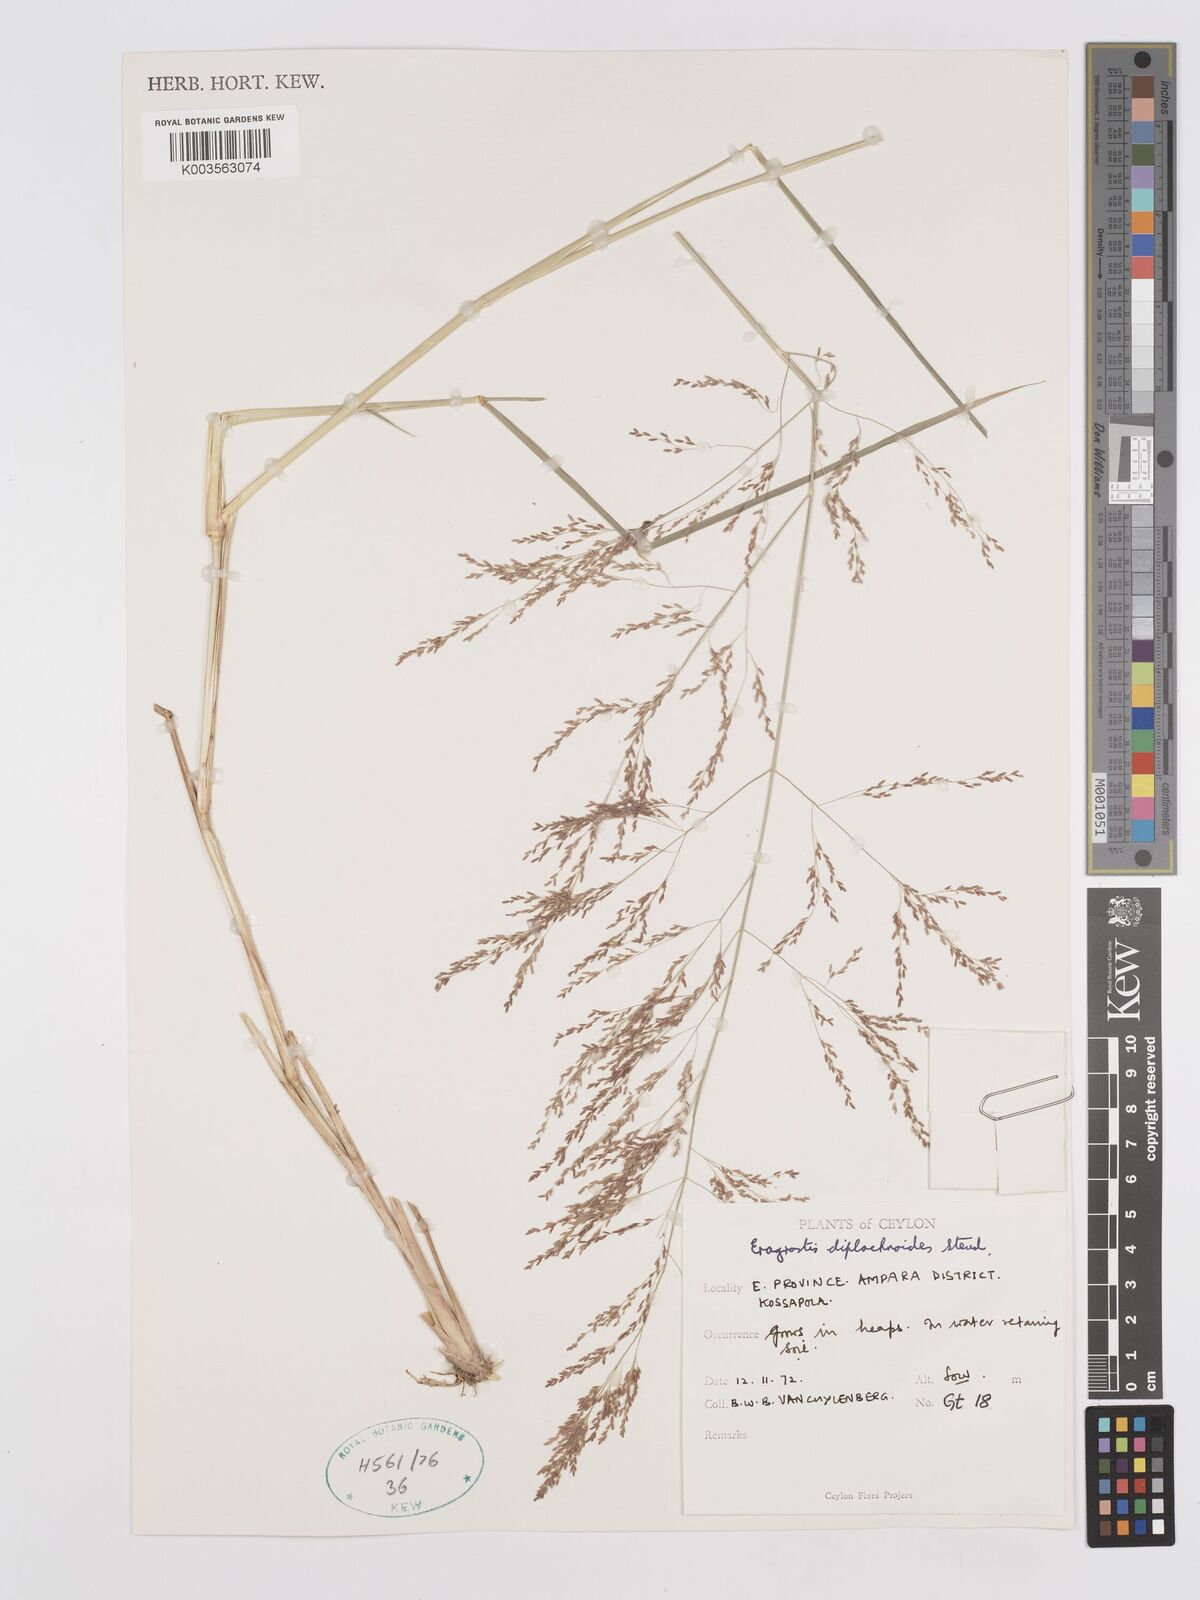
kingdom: Plantae
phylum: Tracheophyta
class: Liliopsida
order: Poales
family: Poaceae
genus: Eragrostis
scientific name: Eragrostis japonica
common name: Pond lovegrass
